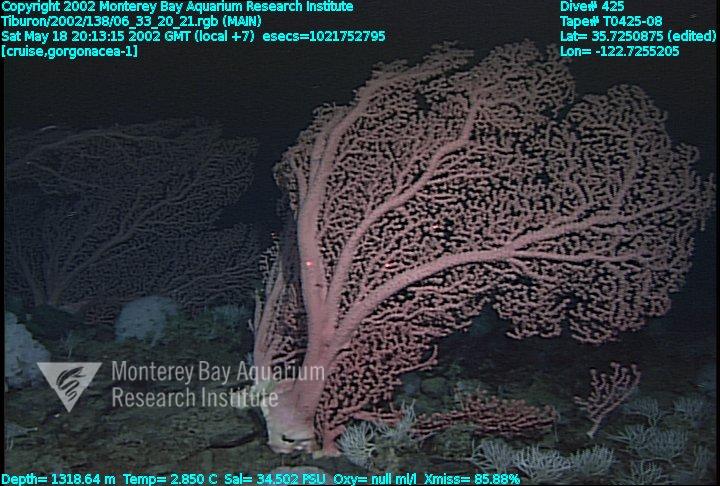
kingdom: Animalia
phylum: Porifera
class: Demospongiae
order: Poecilosclerida
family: Cladorhizidae
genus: Asbestopluma
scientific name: Asbestopluma monticola
